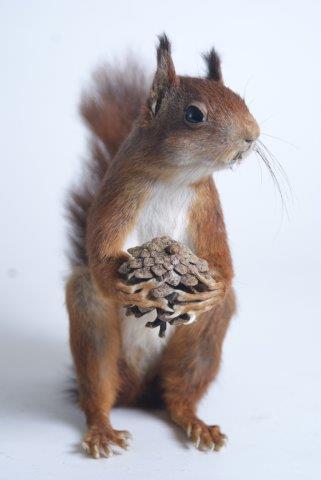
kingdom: Animalia
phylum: Chordata
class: Mammalia
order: Rodentia
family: Sciuridae
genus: Sciurus
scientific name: Sciurus vulgaris
